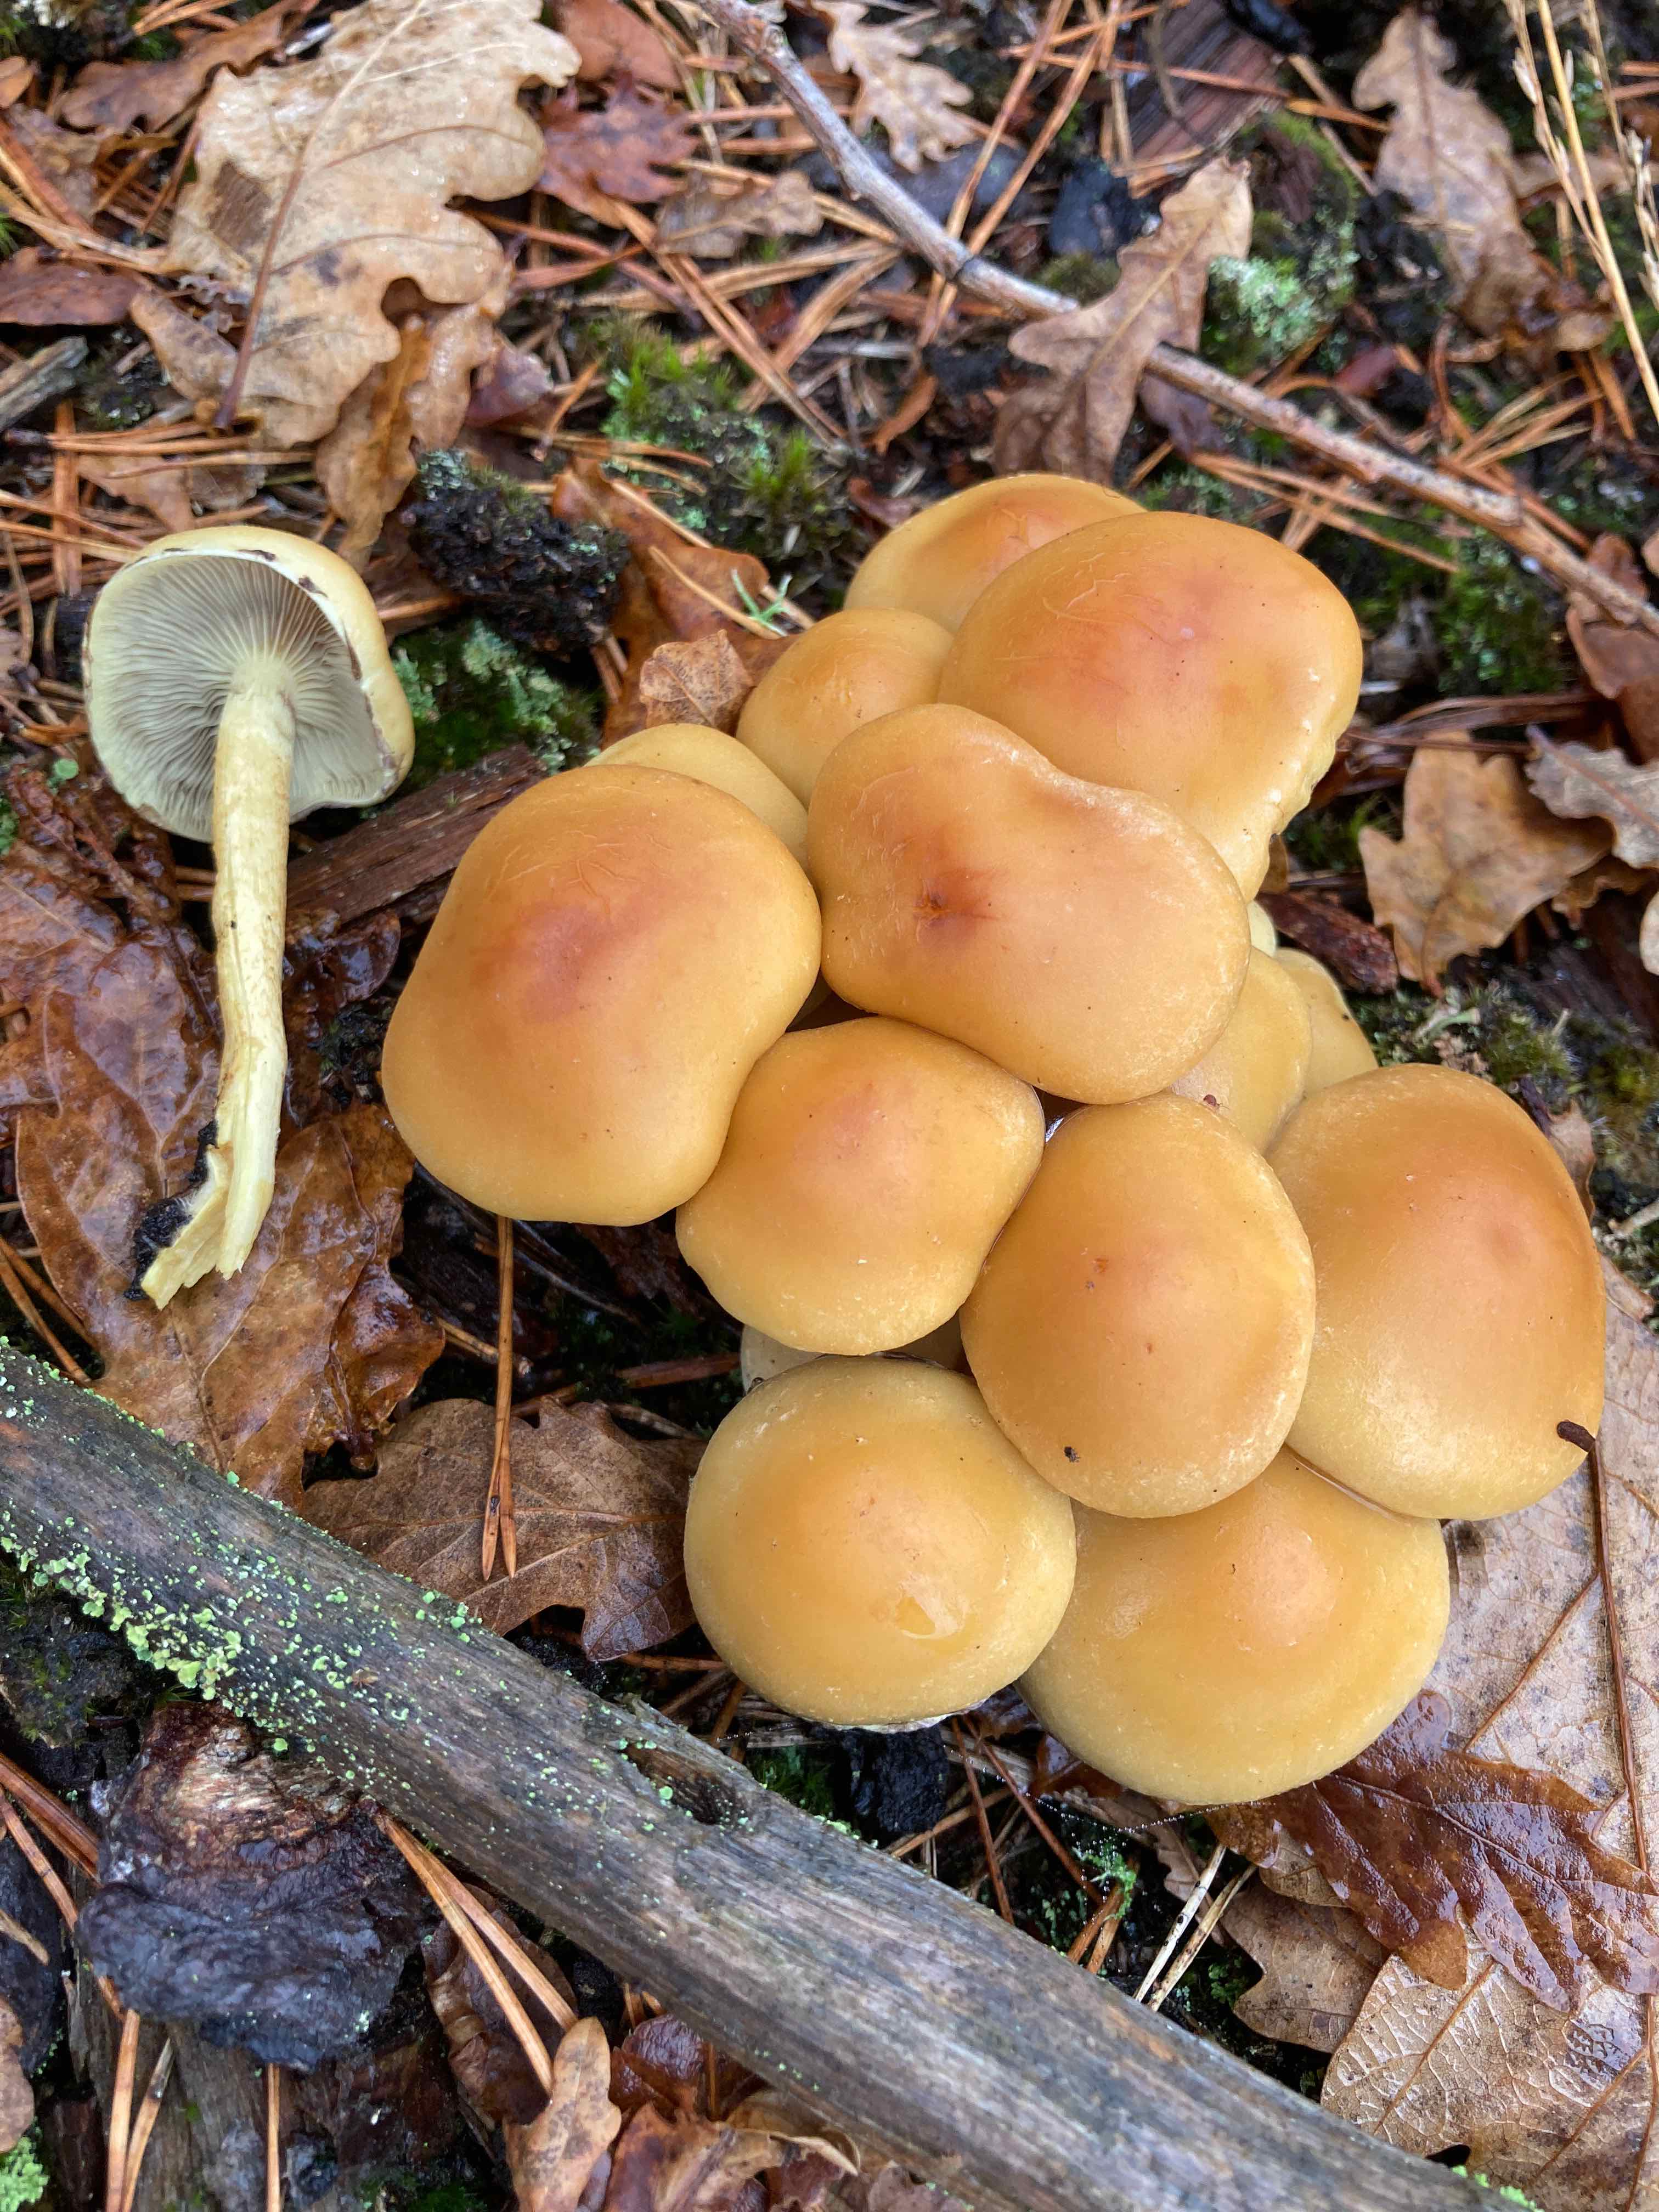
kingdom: Fungi
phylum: Basidiomycota
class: Agaricomycetes
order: Agaricales
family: Strophariaceae
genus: Hypholoma
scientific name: Hypholoma fasciculare
